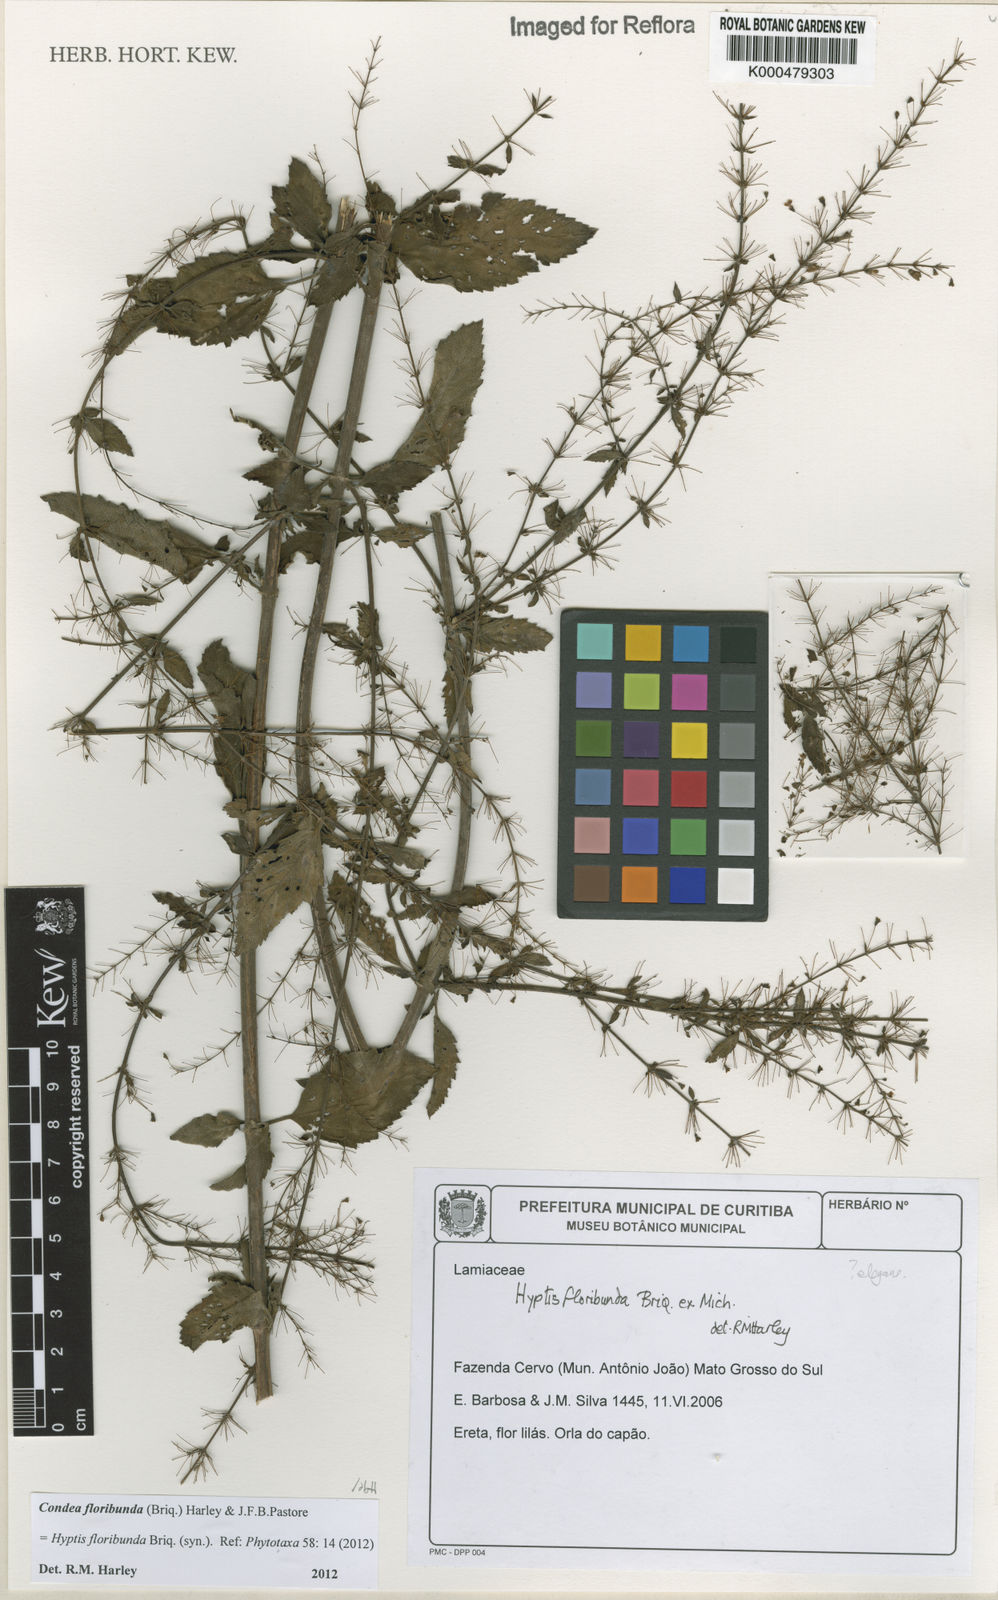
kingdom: Plantae
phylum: Tracheophyta
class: Magnoliopsida
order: Lamiales
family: Lamiaceae
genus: Hyptis
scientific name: Hyptis
